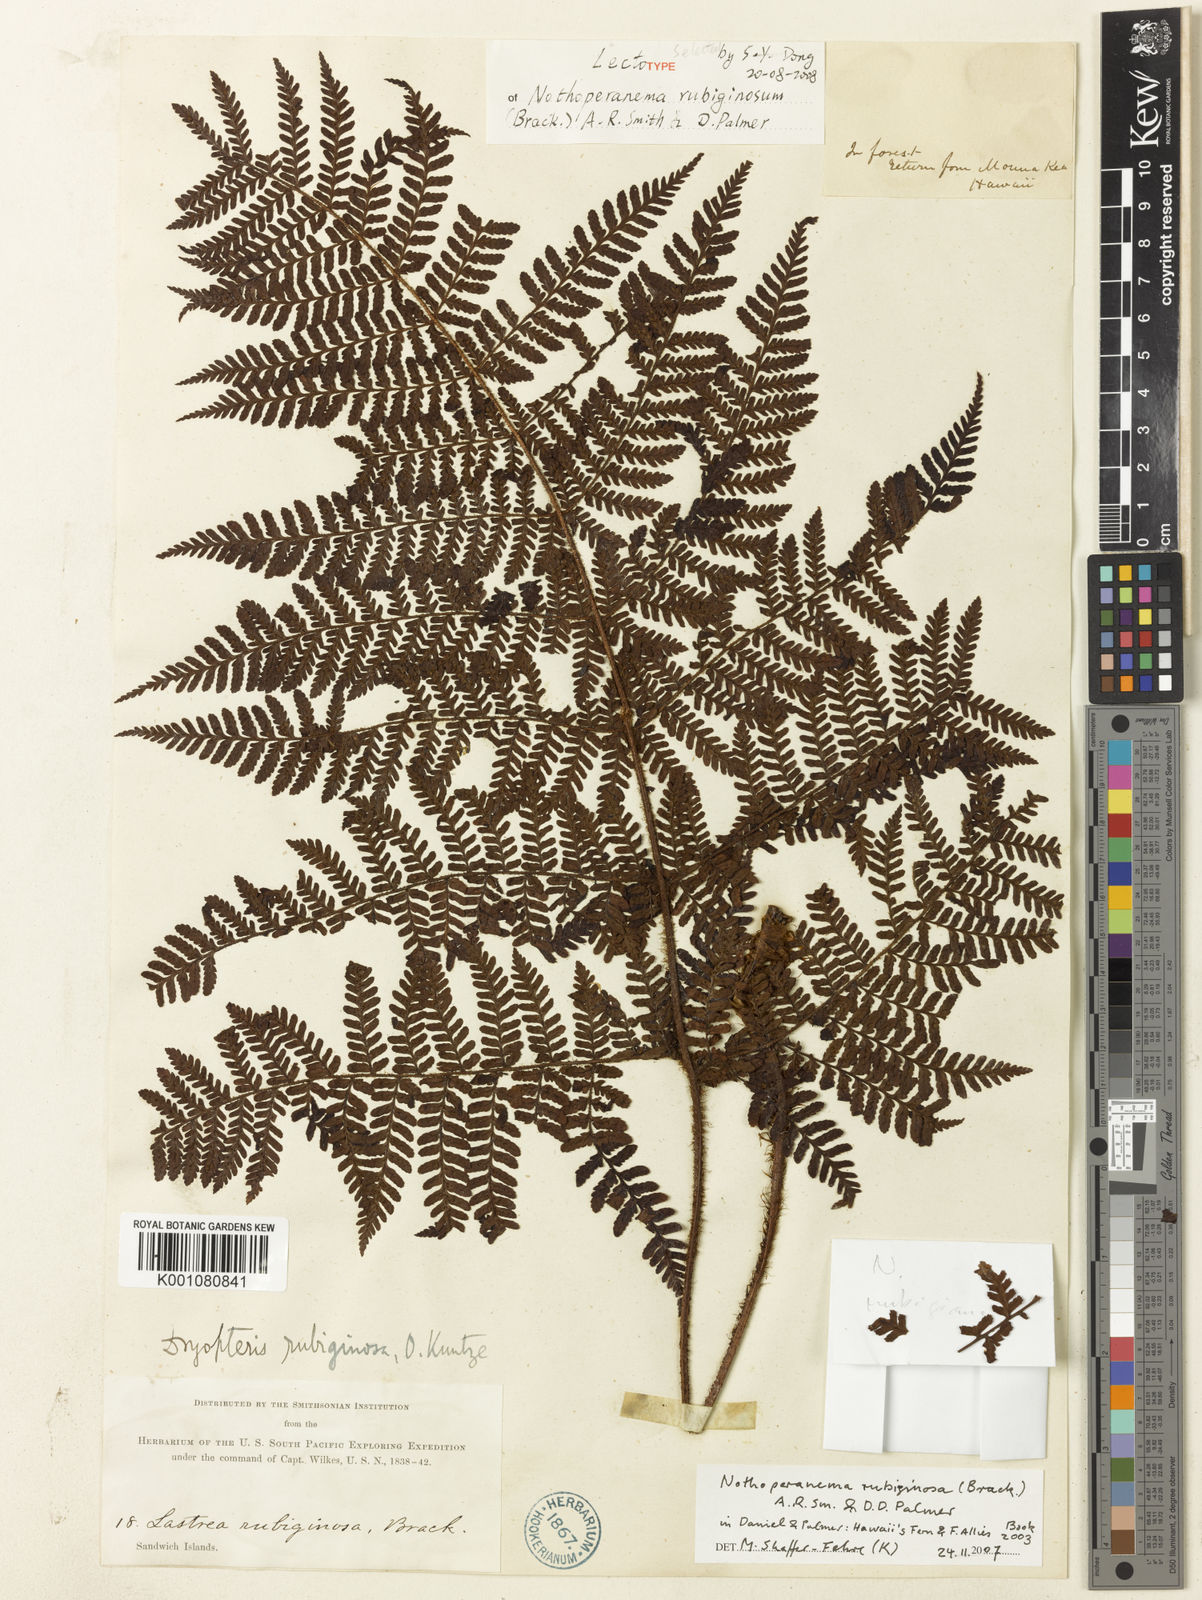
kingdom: Plantae
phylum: Tracheophyta
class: Polypodiopsida
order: Polypodiales
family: Dryopteridaceae
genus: Dryopteris
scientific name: Dryopteris rubiginosa
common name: Island lacefern
